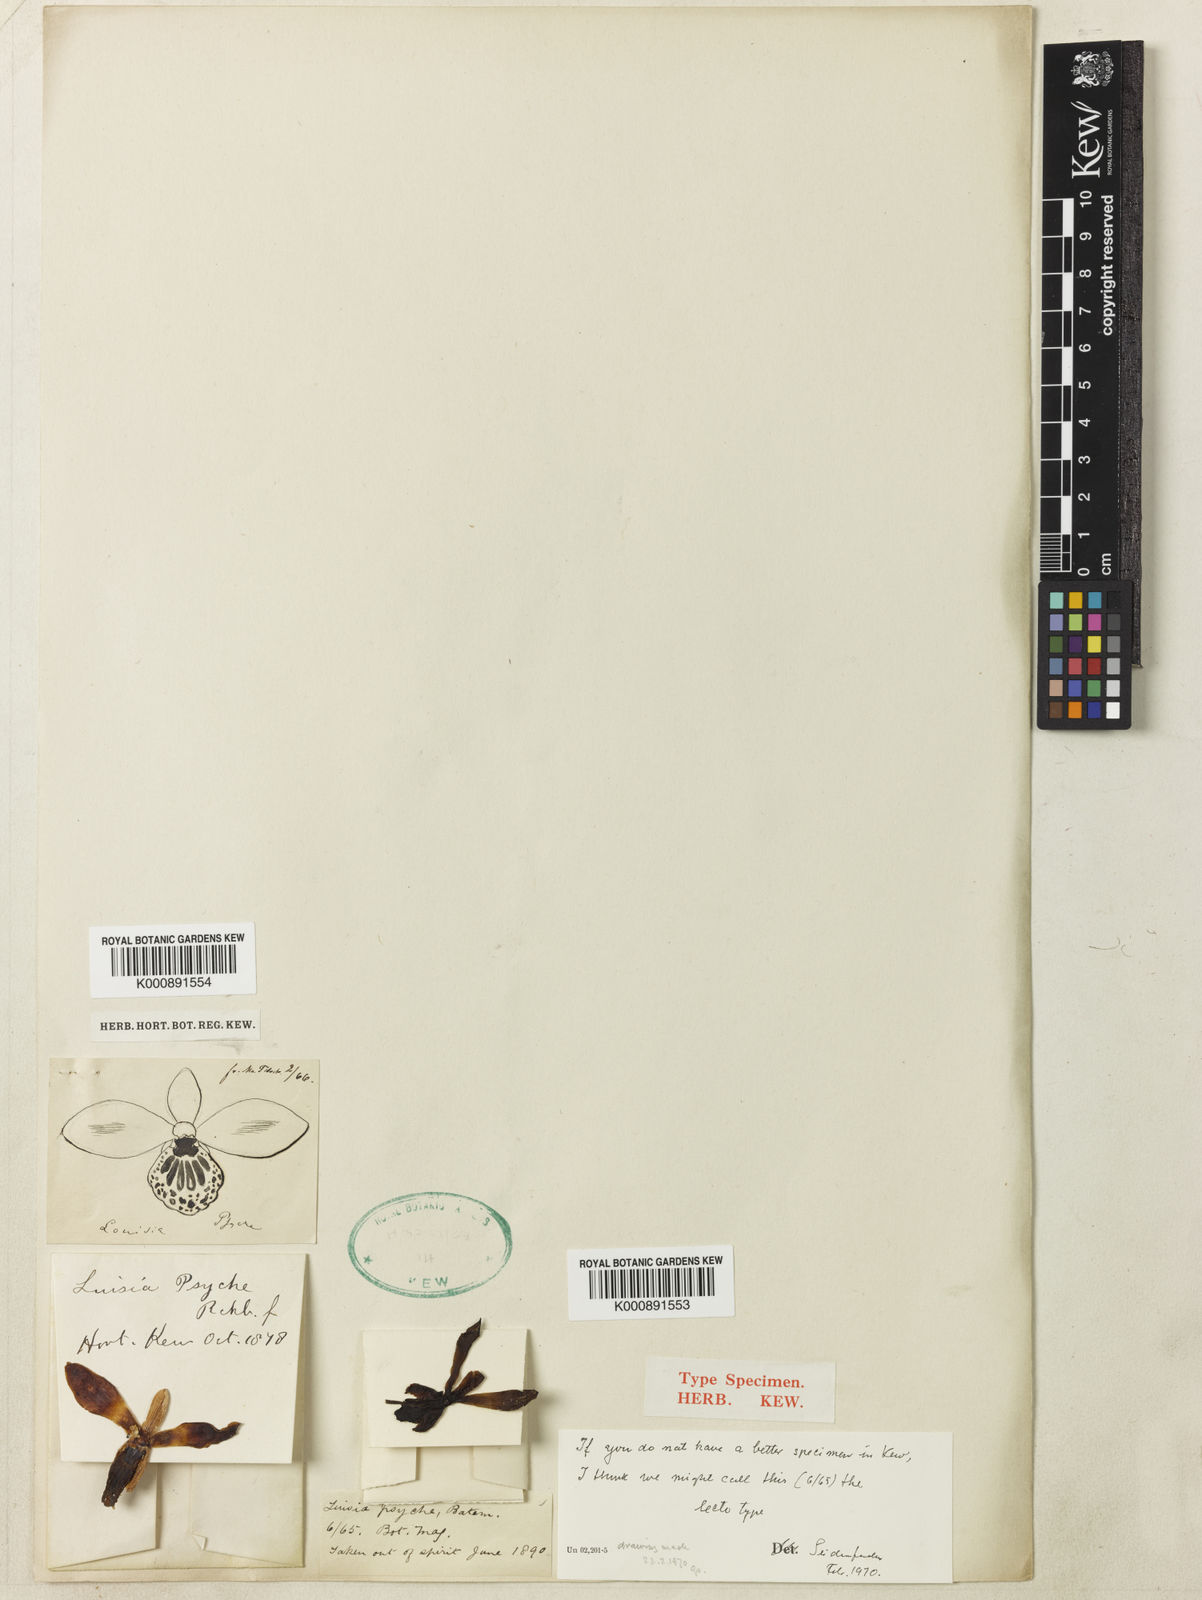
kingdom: Plantae
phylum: Tracheophyta
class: Liliopsida
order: Asparagales
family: Orchidaceae
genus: Luisia
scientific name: Luisia psyche
